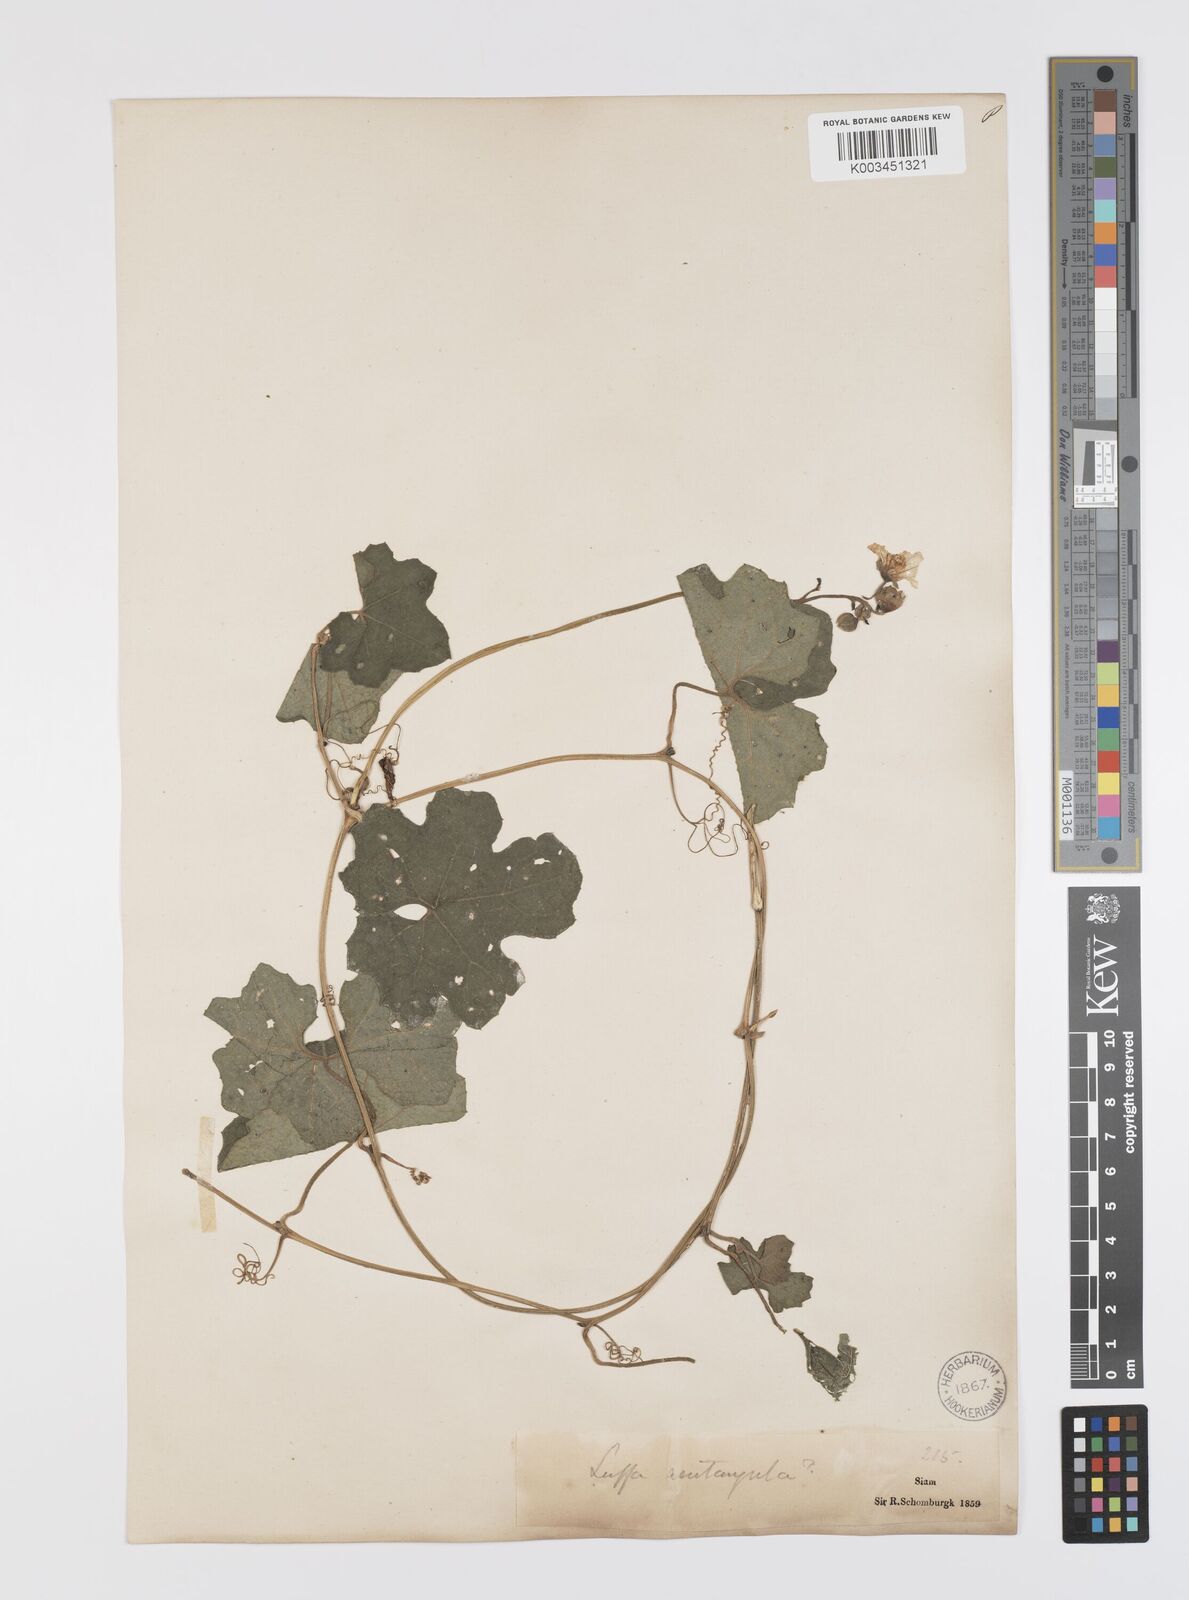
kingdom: Plantae
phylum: Tracheophyta
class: Magnoliopsida
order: Cucurbitales
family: Cucurbitaceae
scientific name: Cucurbitaceae
